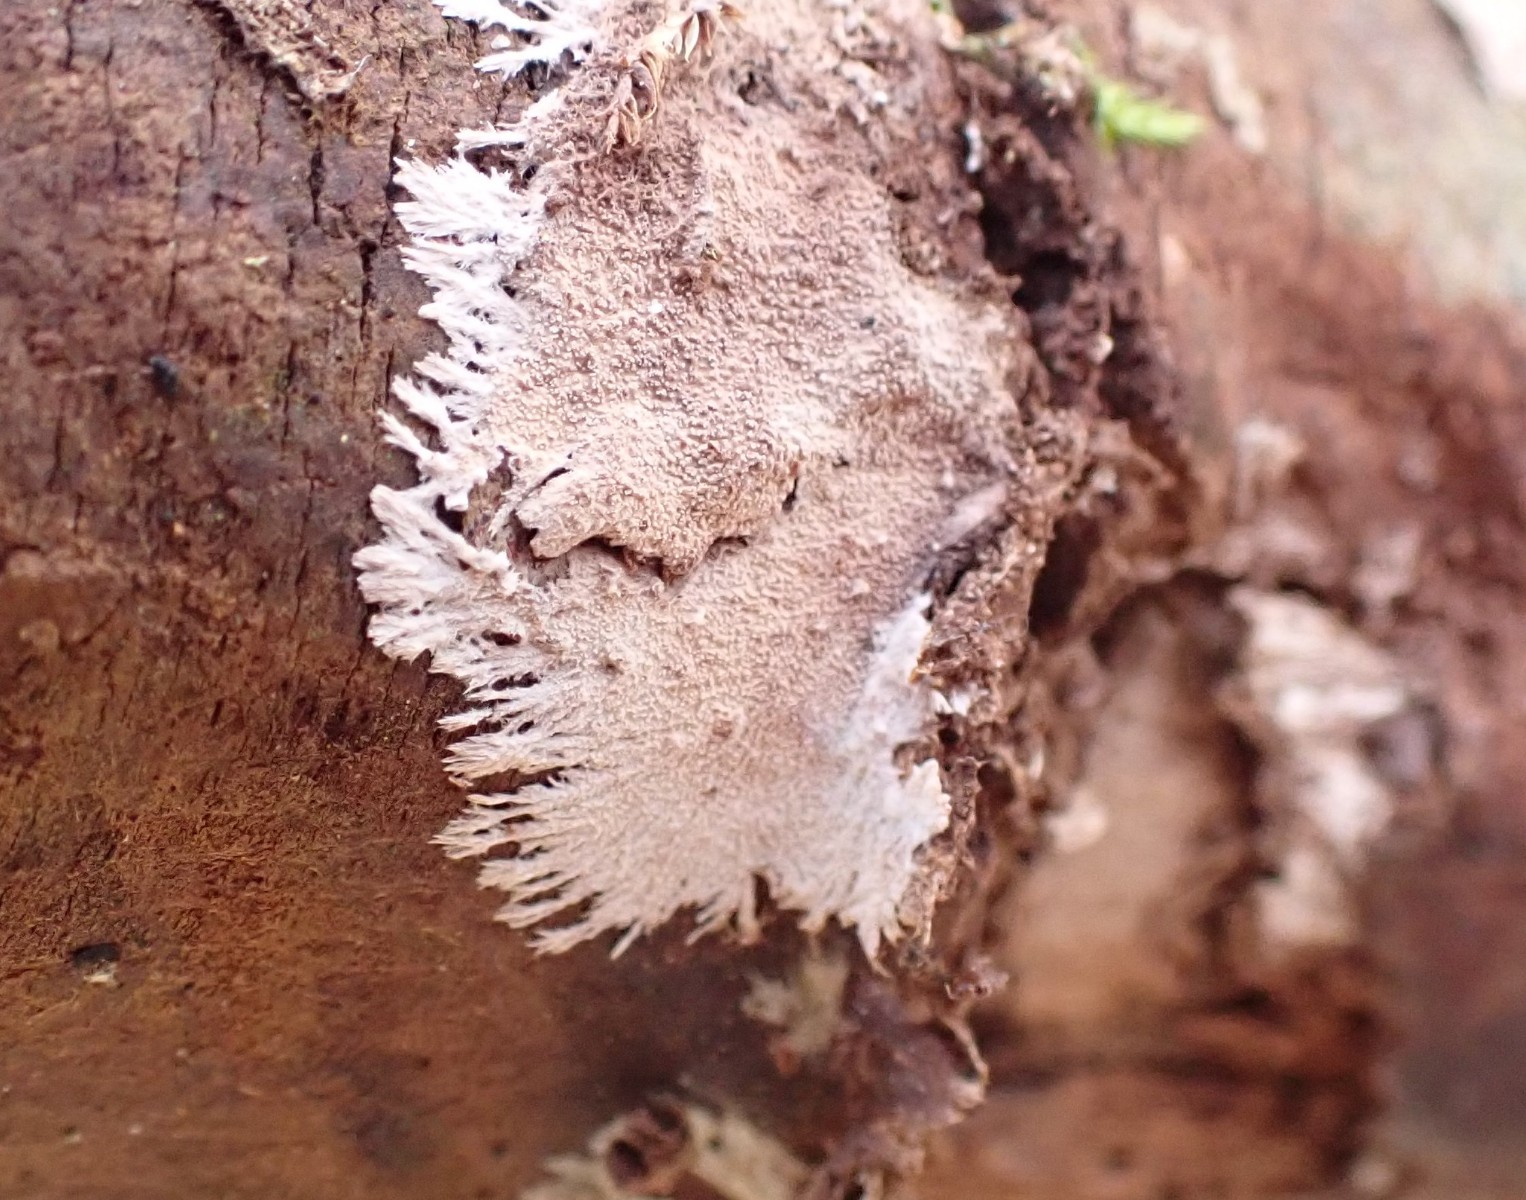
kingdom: Fungi
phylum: Basidiomycota
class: Agaricomycetes
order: Polyporales
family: Steccherinaceae
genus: Steccherinum
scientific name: Steccherinum fimbriatum
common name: trådet skønpig
